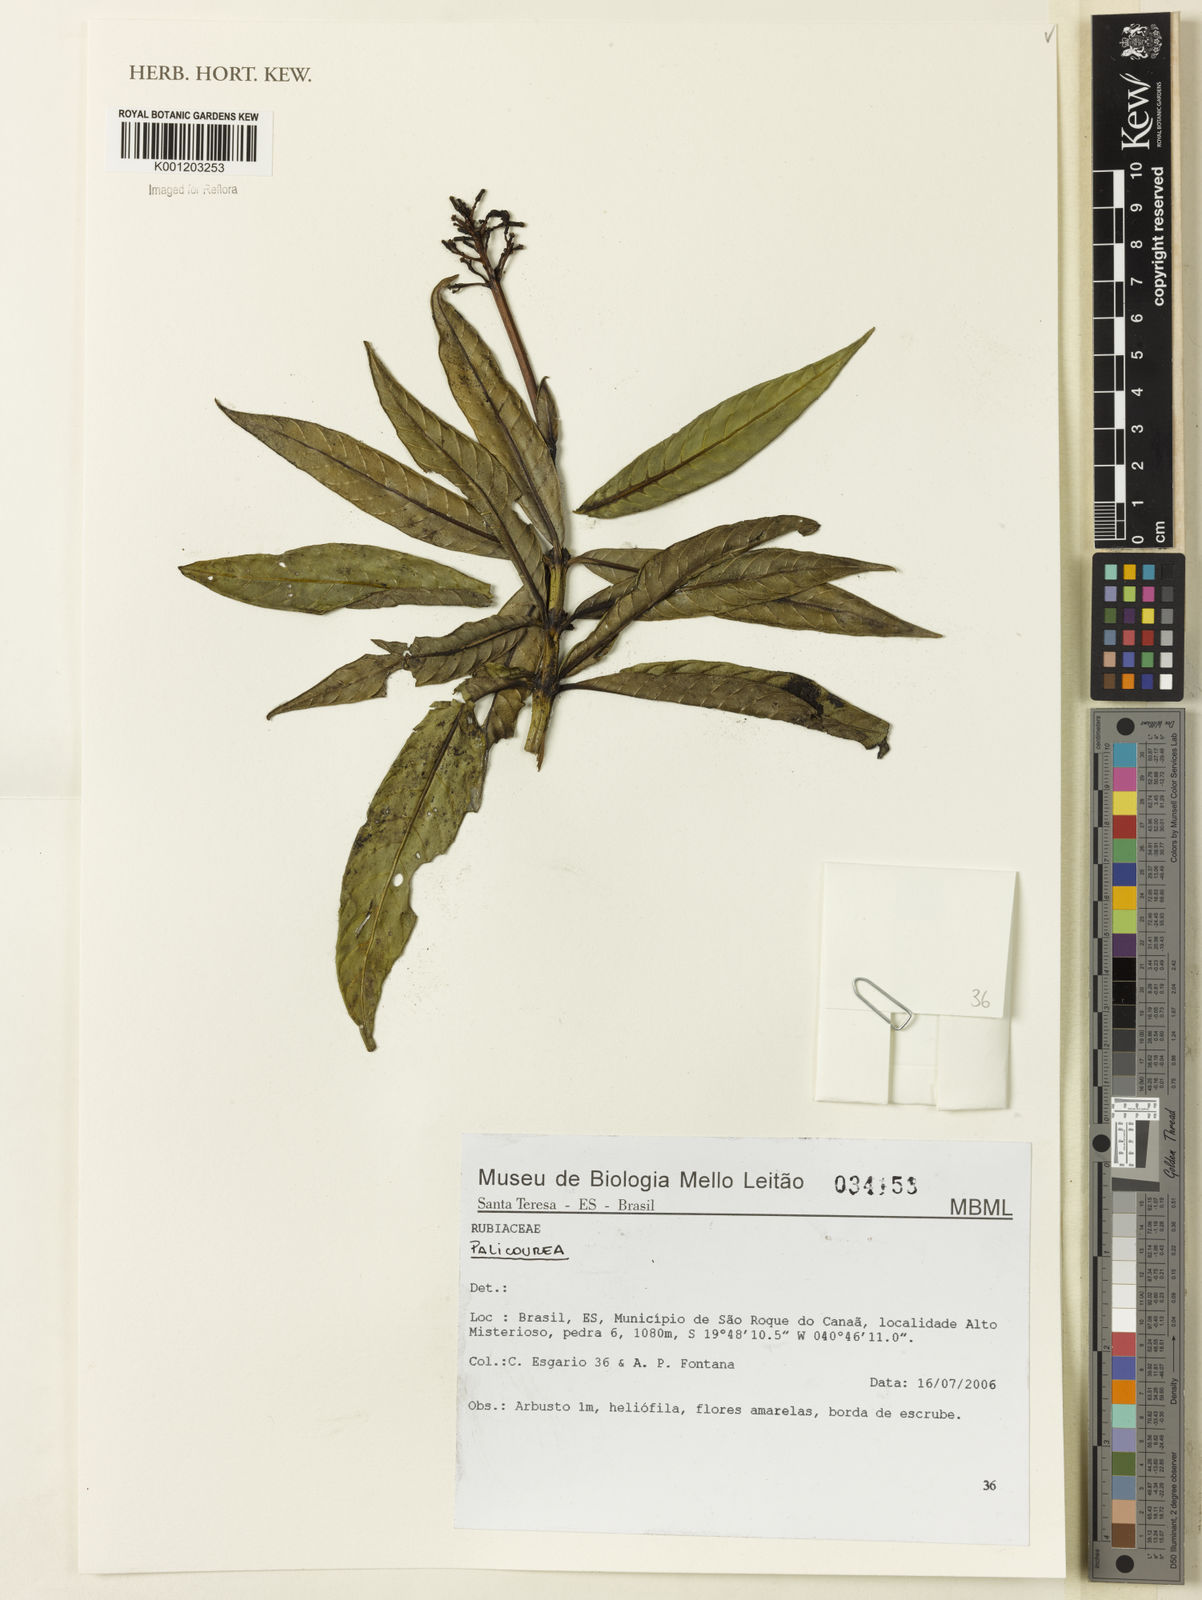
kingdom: Plantae
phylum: Tracheophyta
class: Magnoliopsida
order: Gentianales
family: Rubiaceae
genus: Palicourea
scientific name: Palicourea
